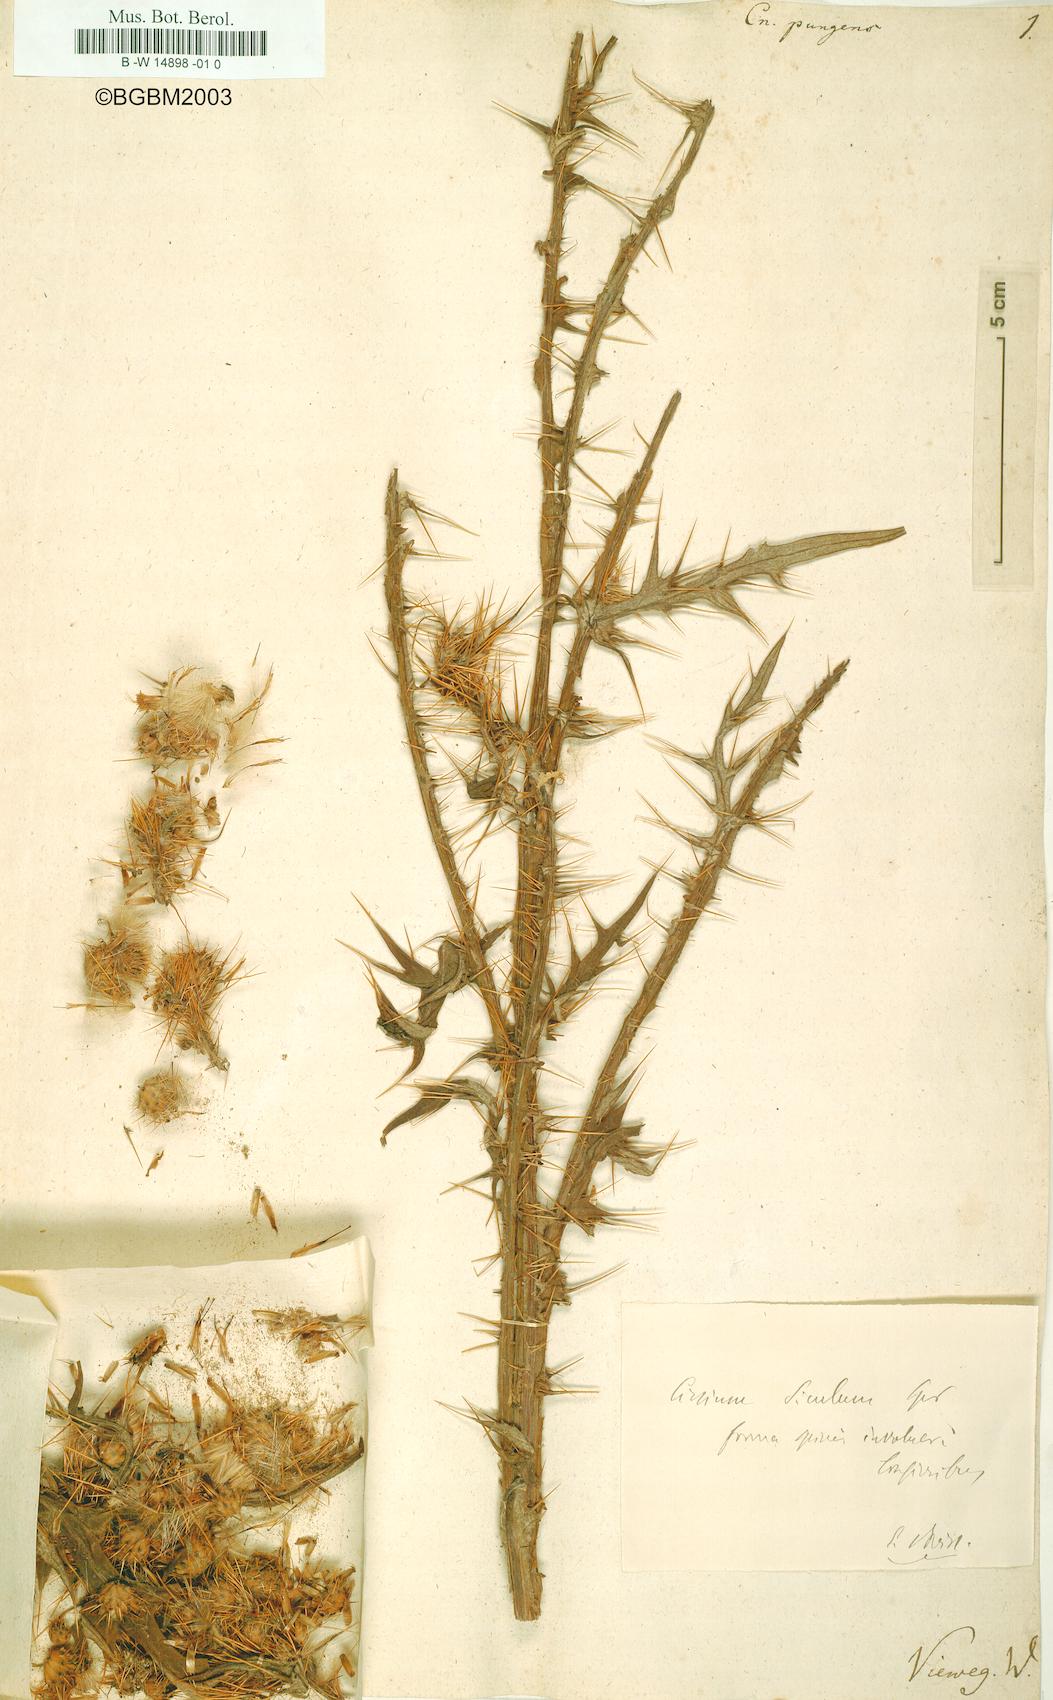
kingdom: Plantae
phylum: Tracheophyta
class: Magnoliopsida
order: Asterales
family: Asteraceae
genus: Carduus
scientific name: Carduus collinus
